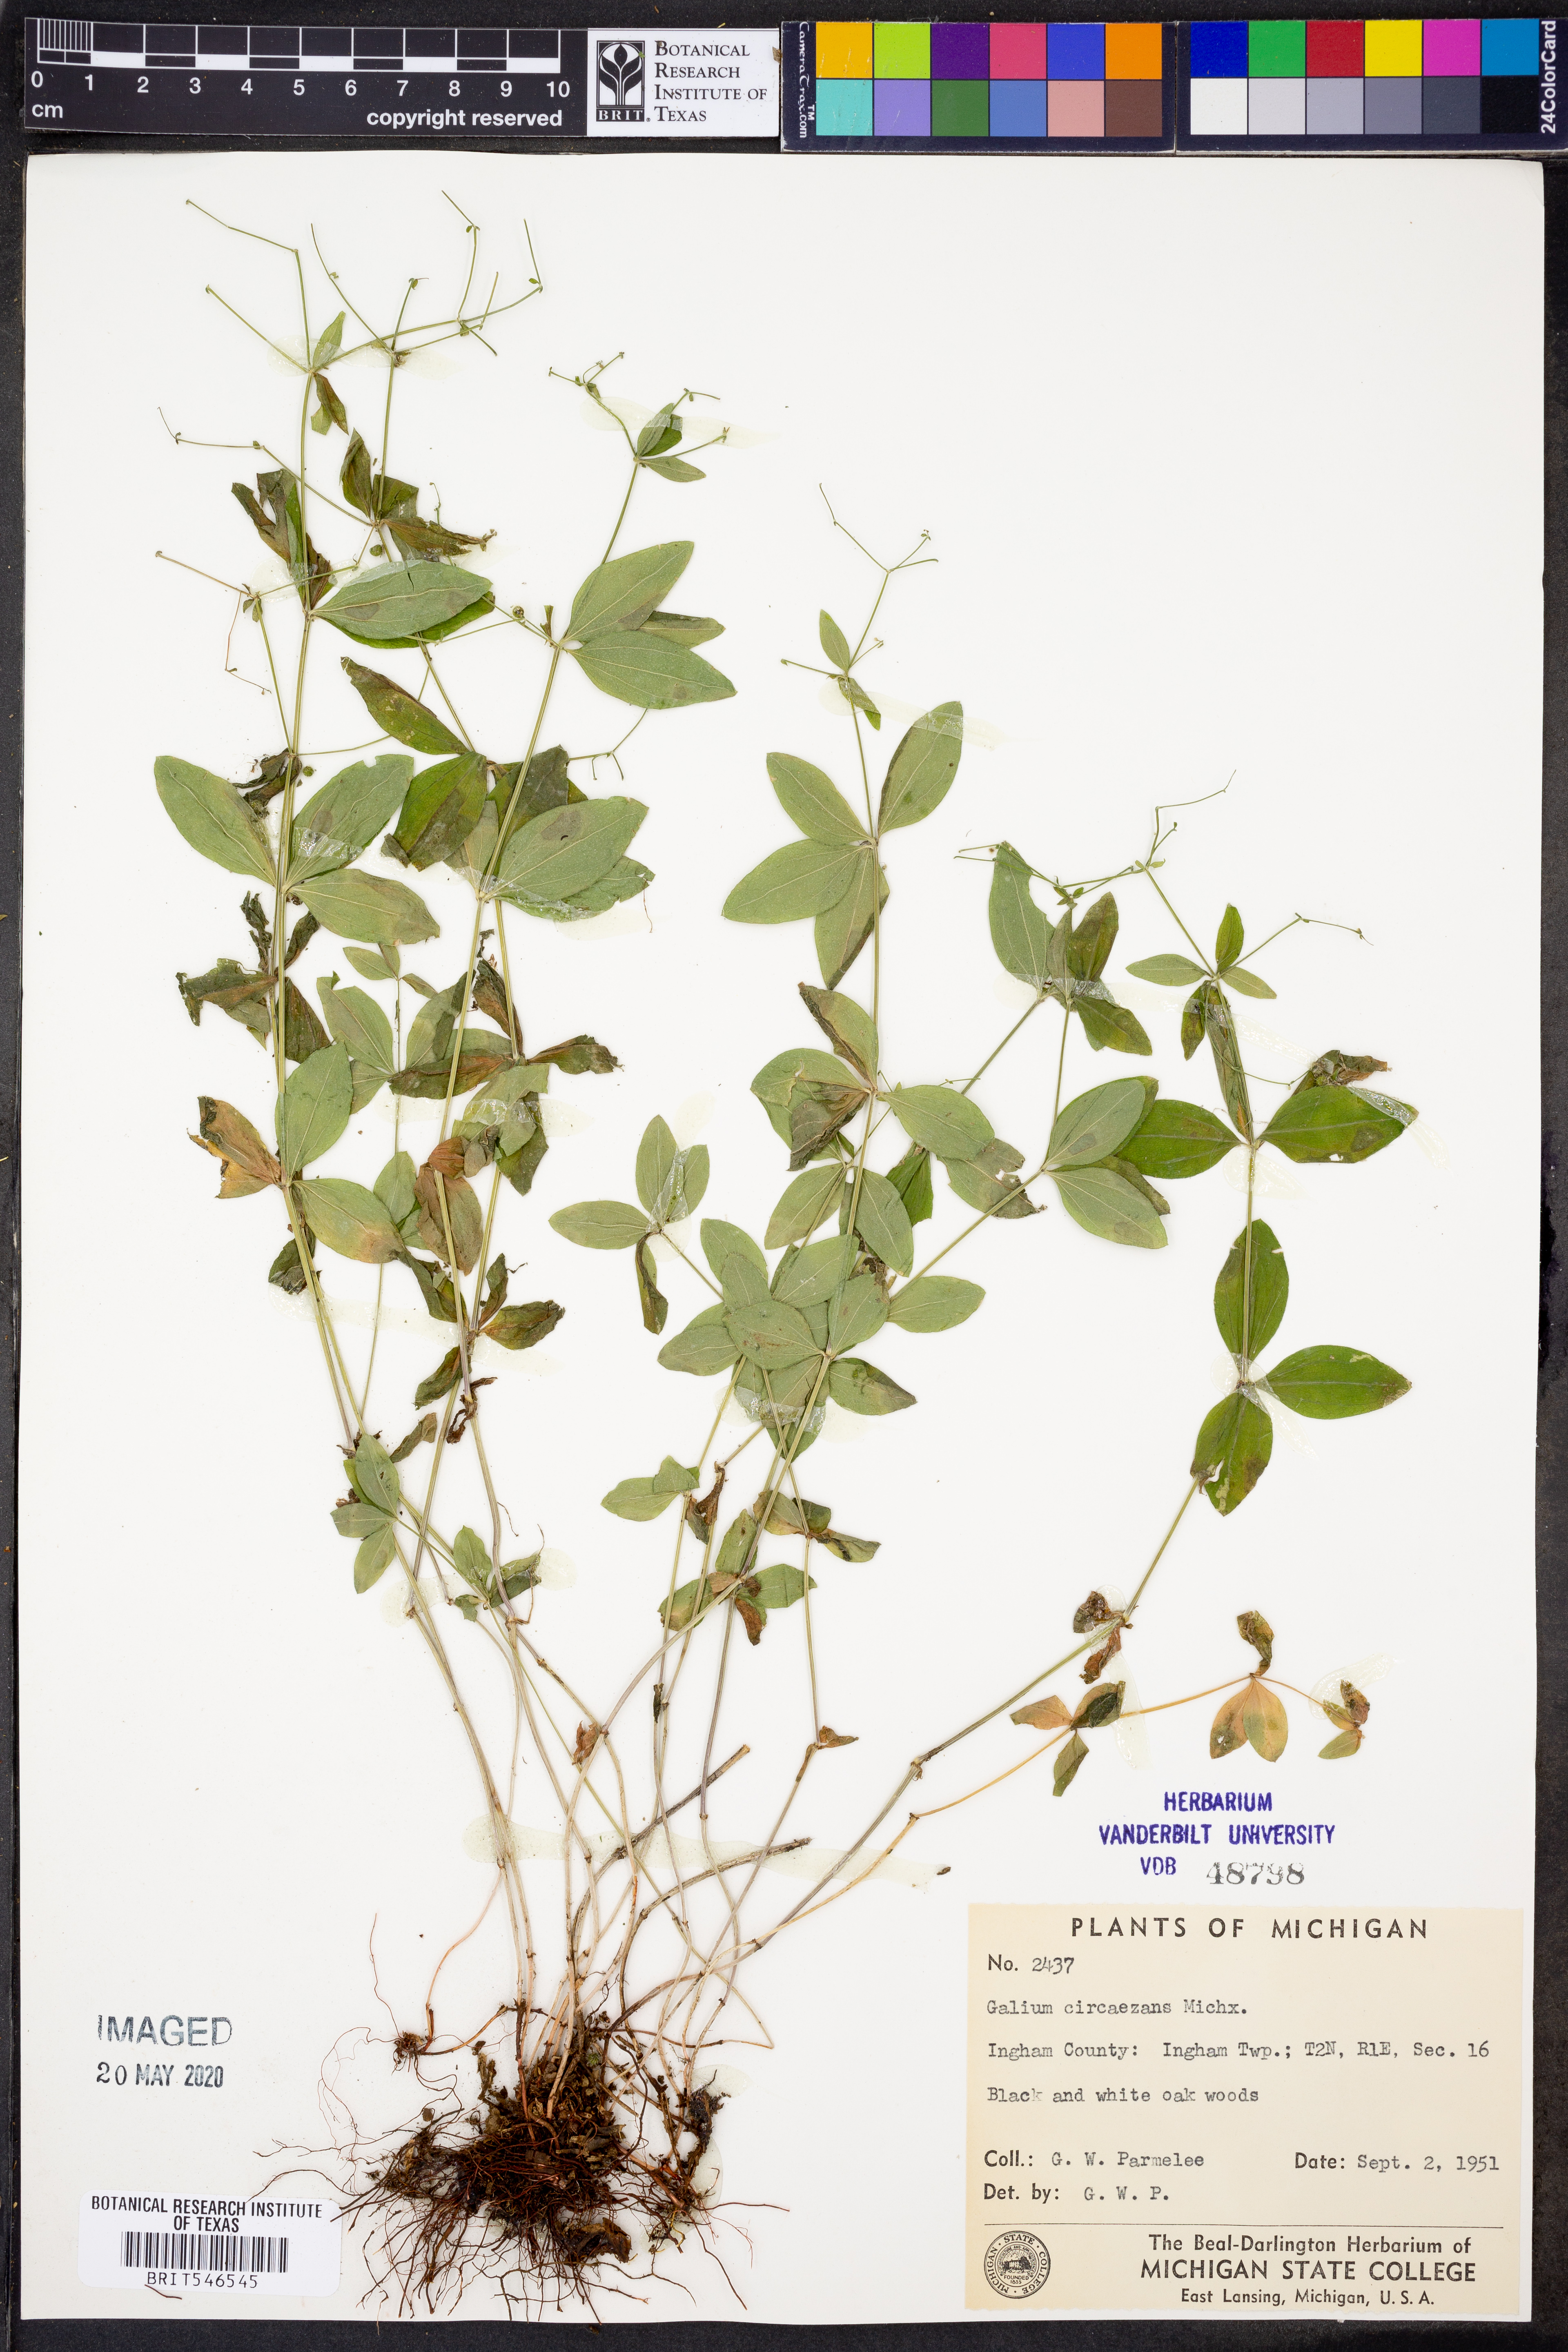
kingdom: Plantae
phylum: Tracheophyta
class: Magnoliopsida
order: Gentianales
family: Rubiaceae
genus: Galium
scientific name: Galium circaezans
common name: Forest bedstraw
